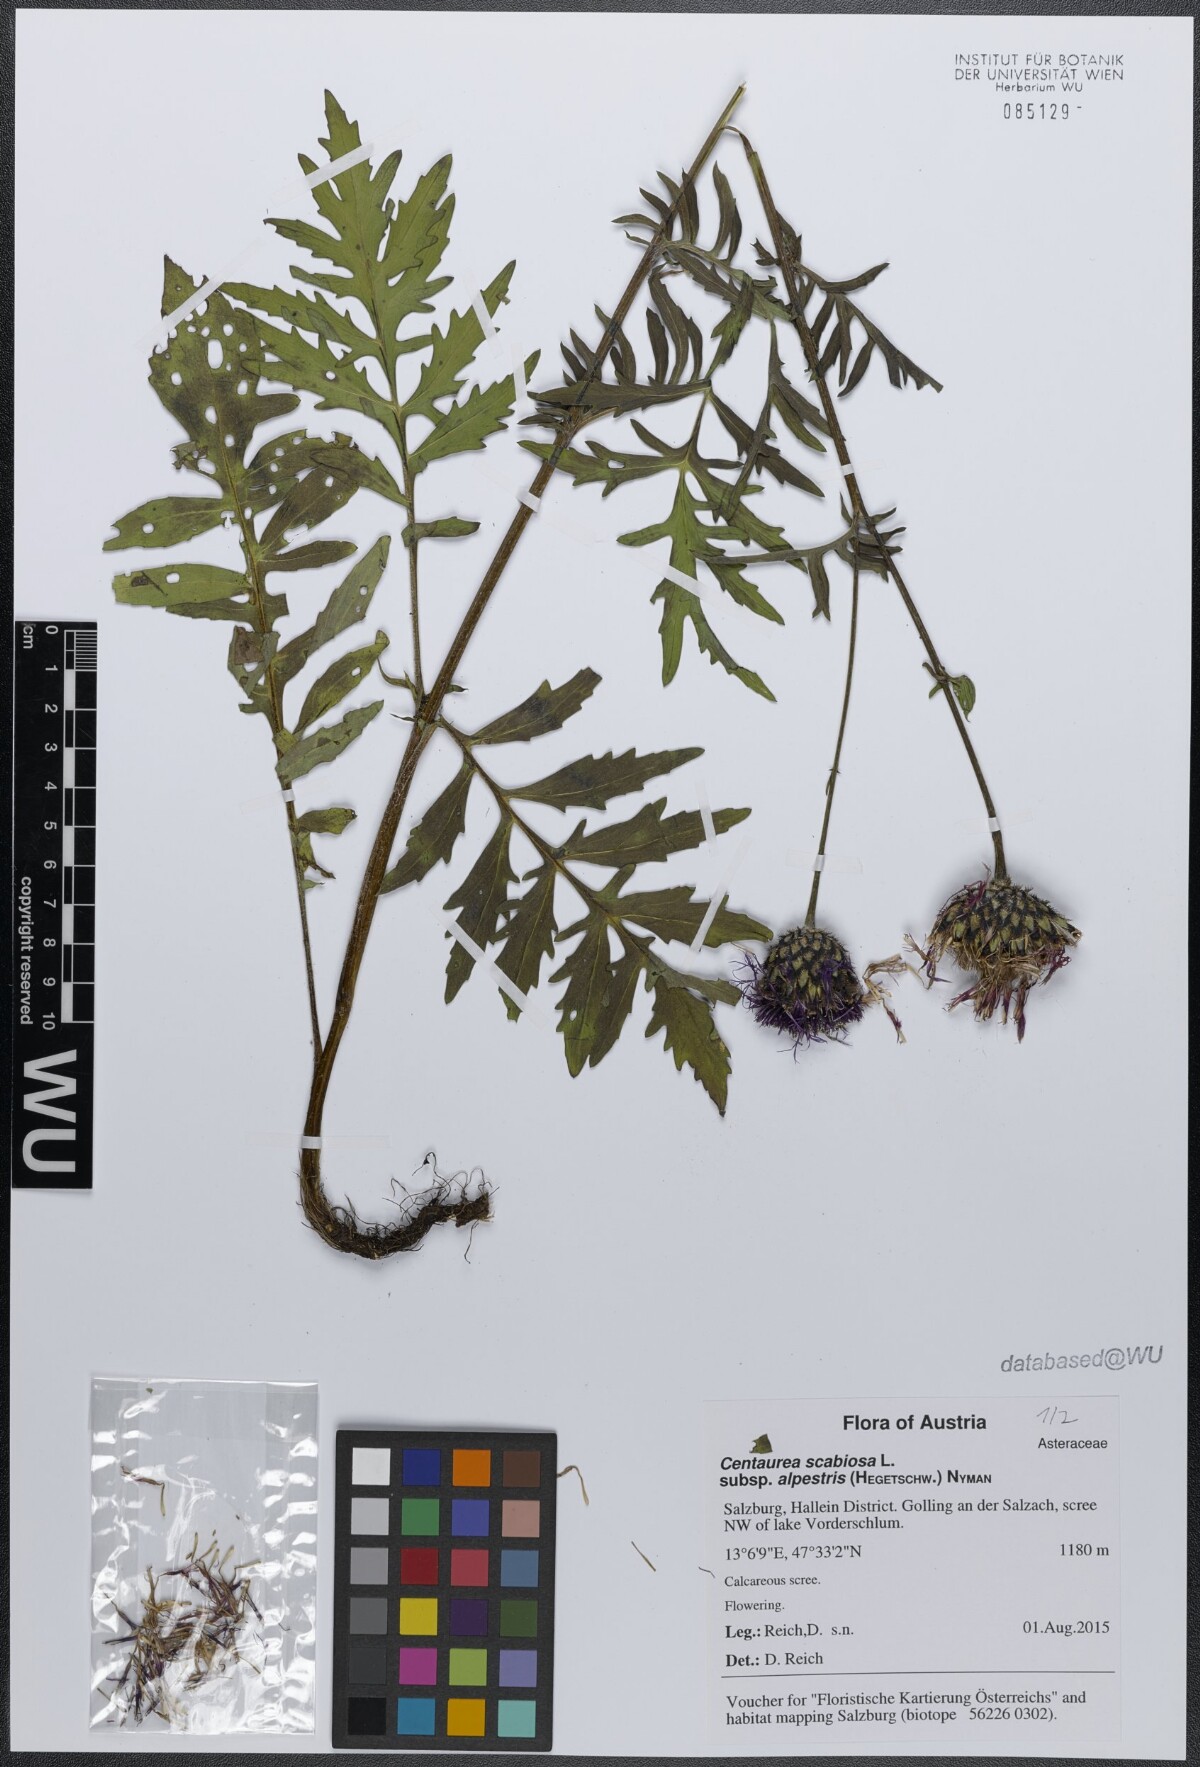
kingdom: Plantae
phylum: Tracheophyta
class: Magnoliopsida
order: Asterales
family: Asteraceae
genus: Centaurea
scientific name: Centaurea scabiosa
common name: Greater knapweed
